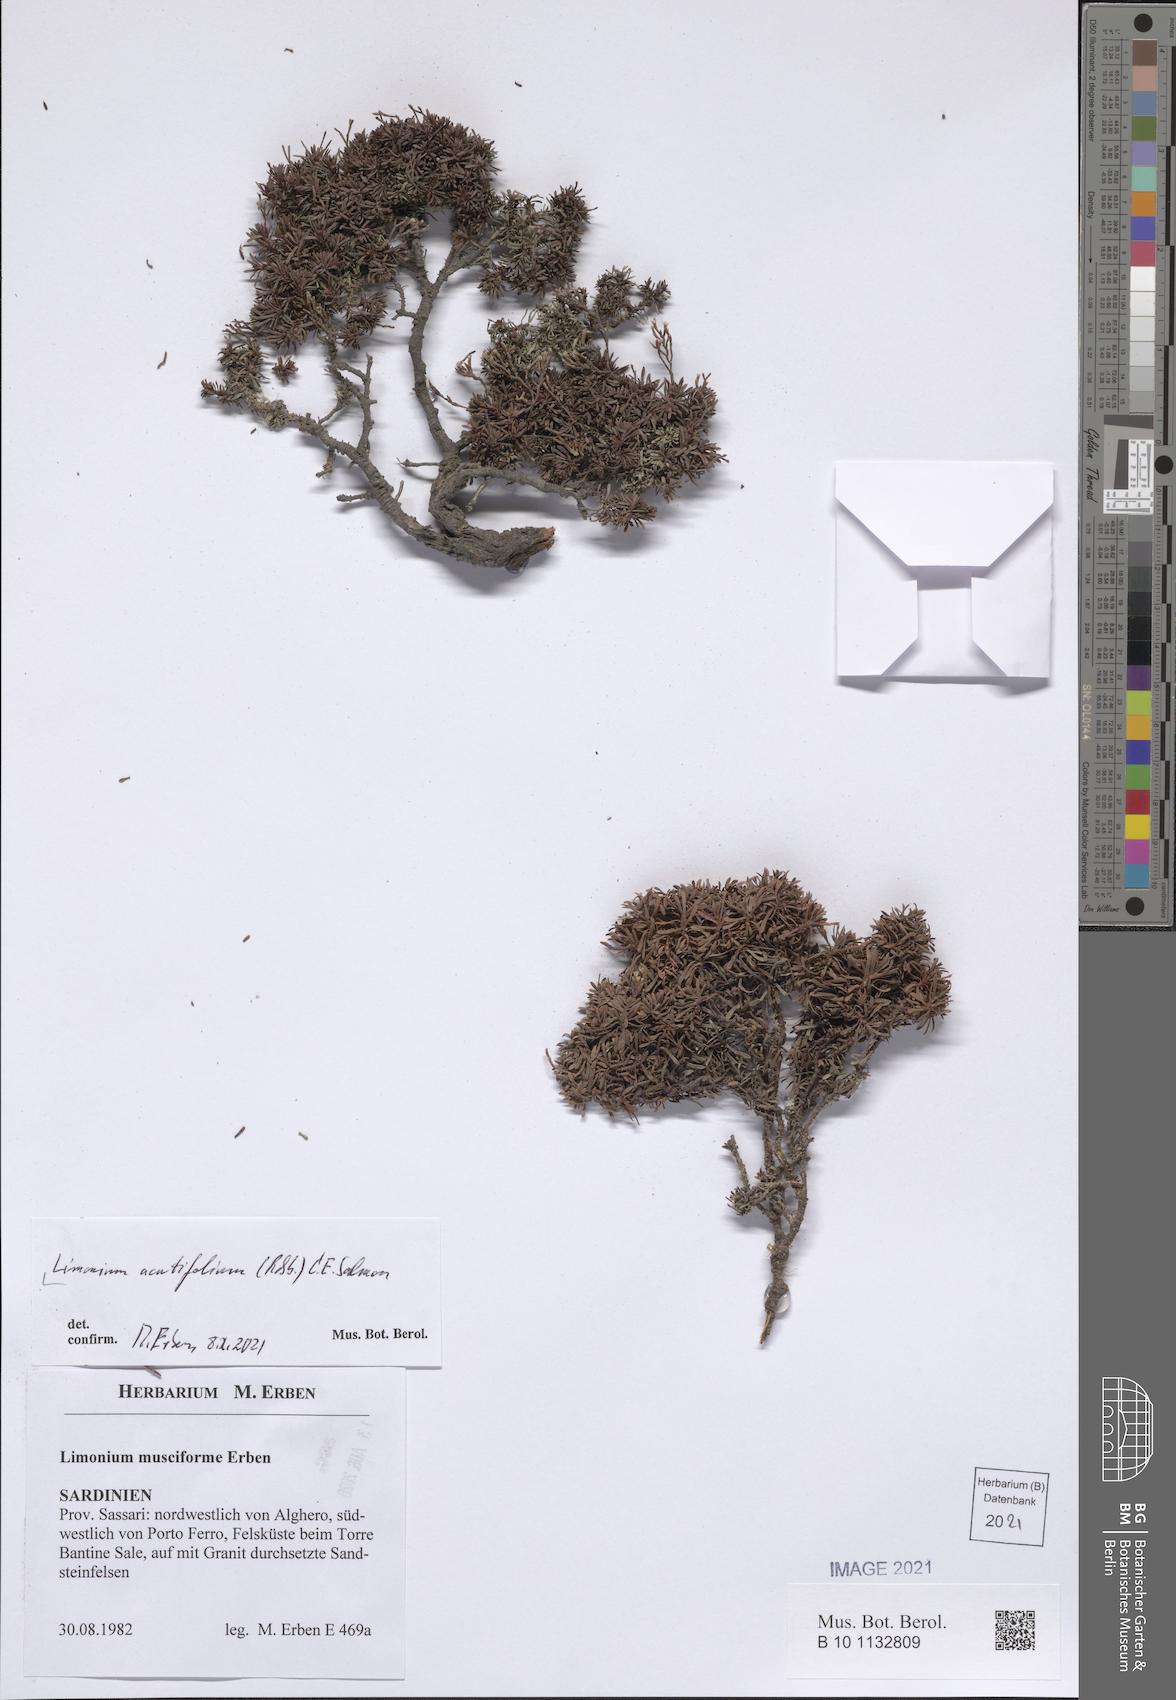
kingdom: Plantae
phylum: Tracheophyta
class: Magnoliopsida
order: Caryophyllales
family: Plumbaginaceae
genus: Limonium
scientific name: Limonium acutifolium
